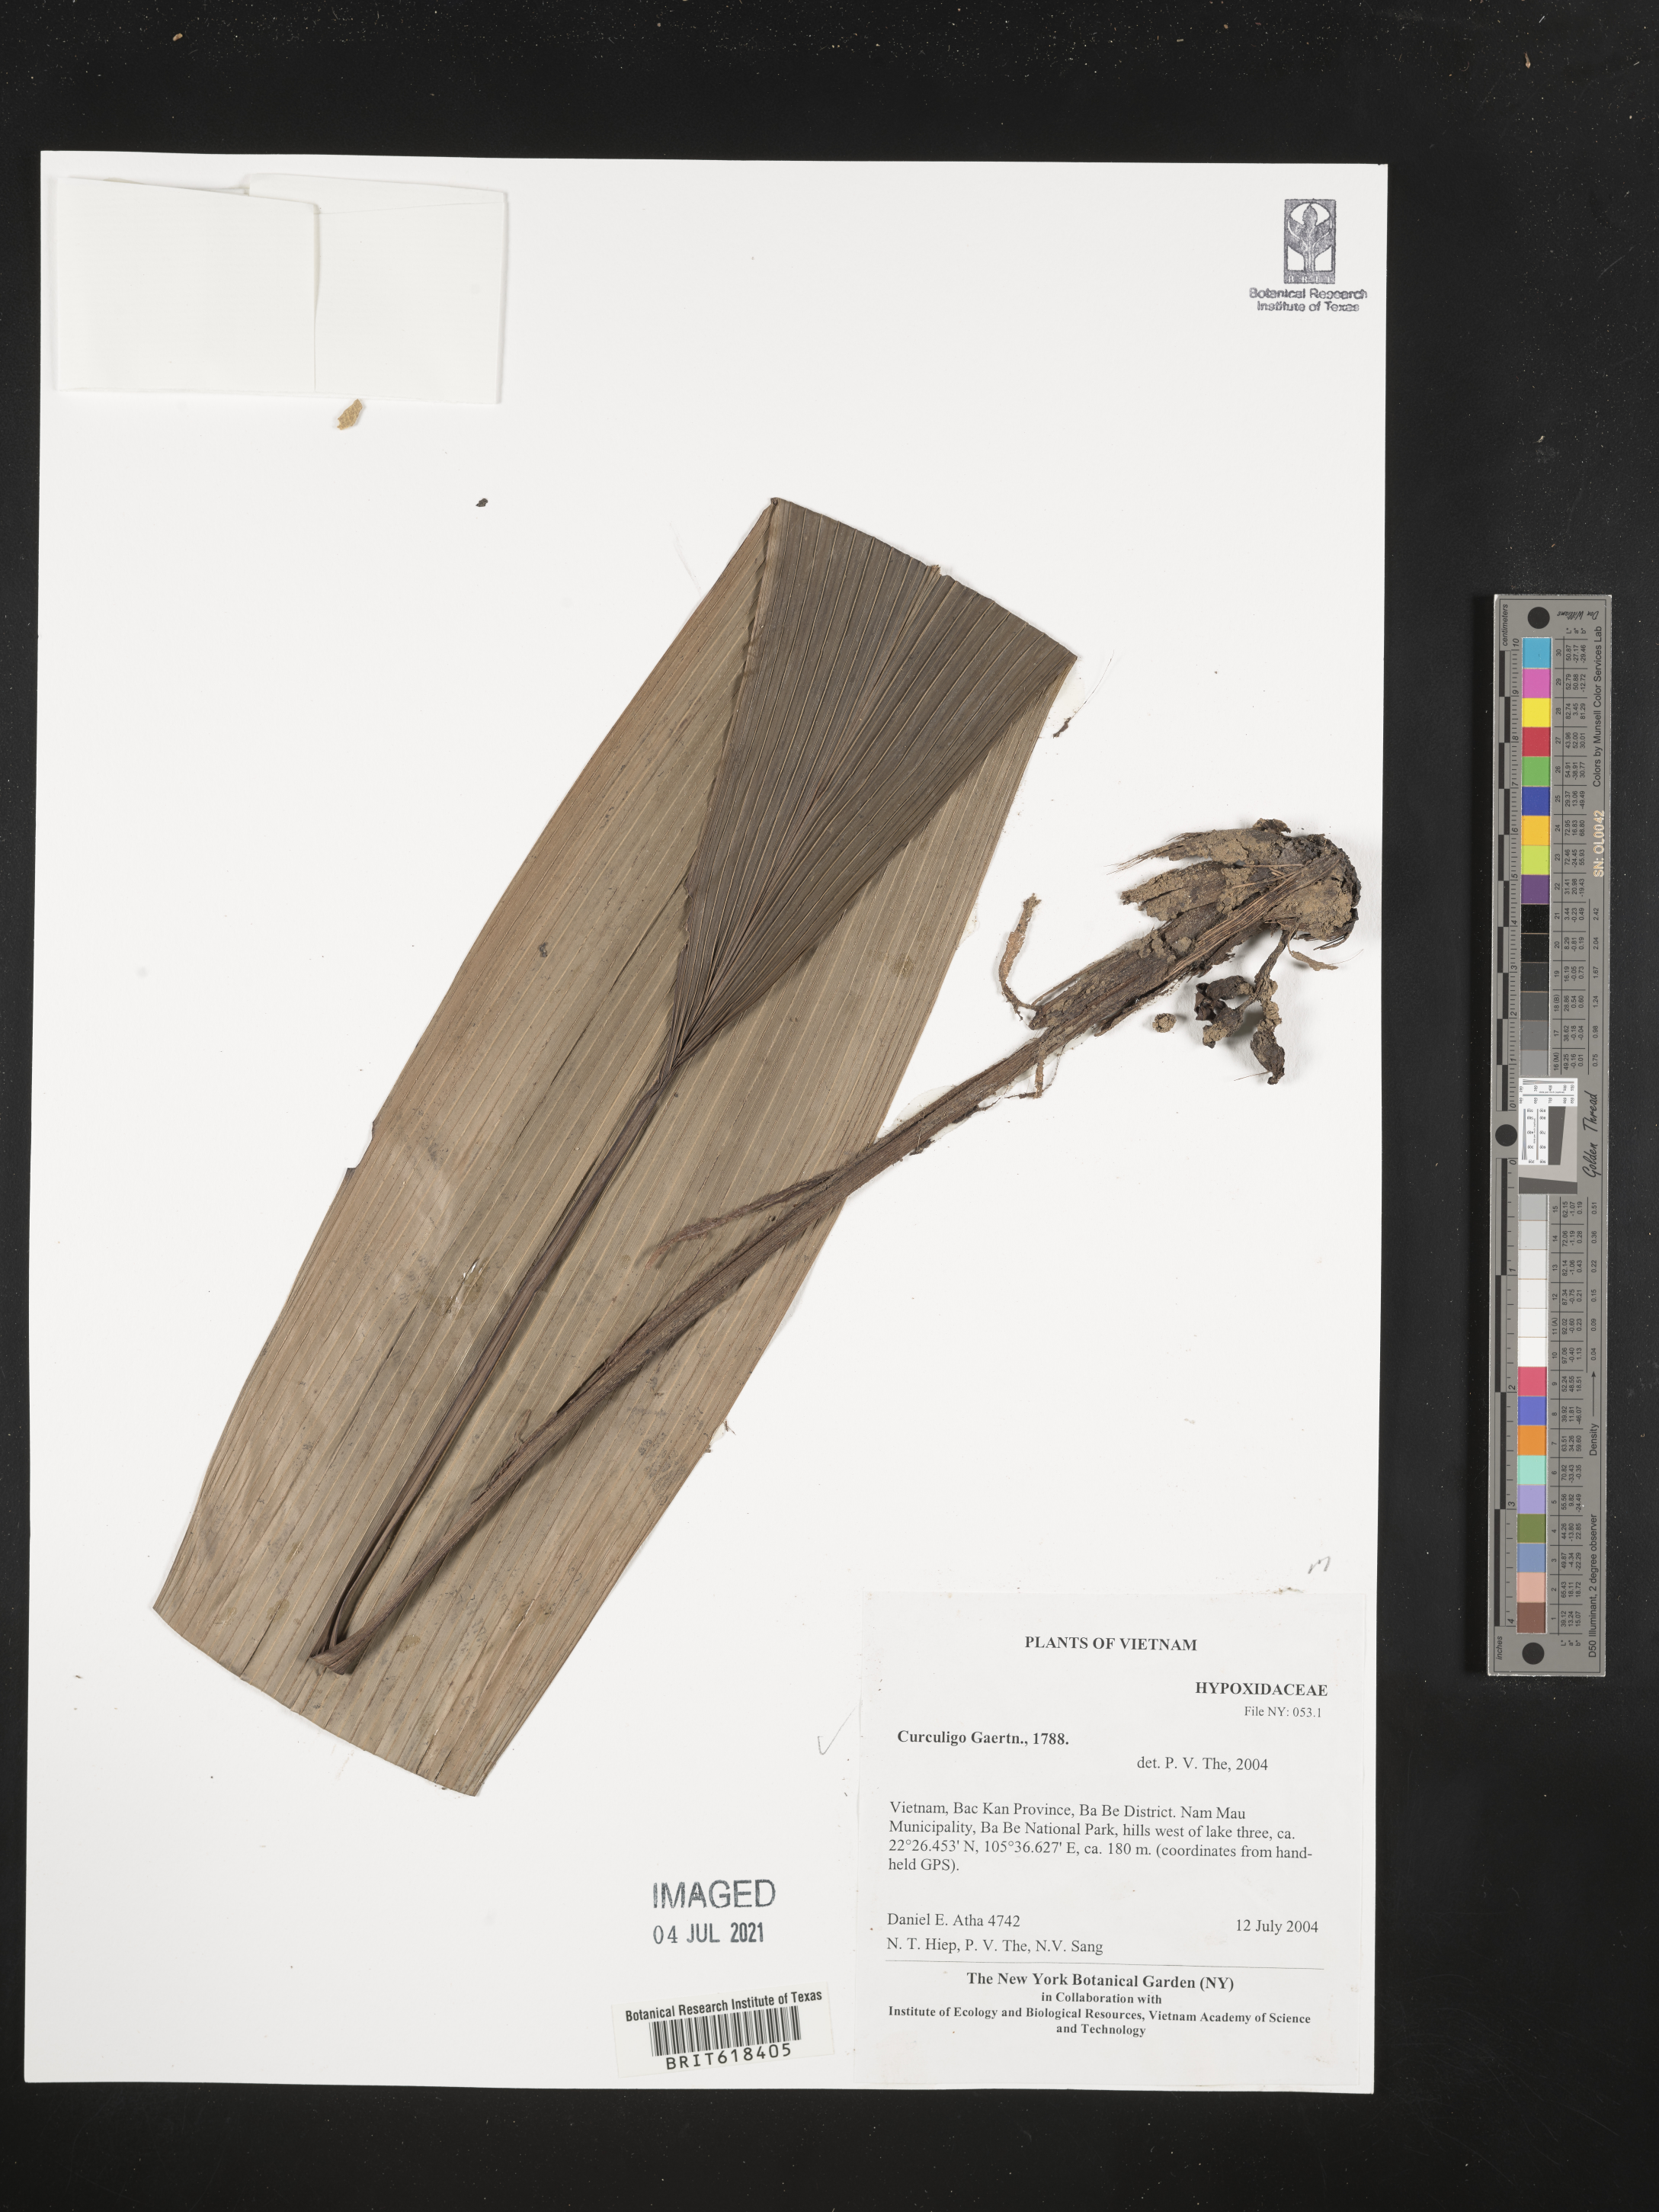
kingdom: Plantae
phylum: Tracheophyta
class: Liliopsida
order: Asparagales
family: Hypoxidaceae
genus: Curculigo
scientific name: Curculigo
